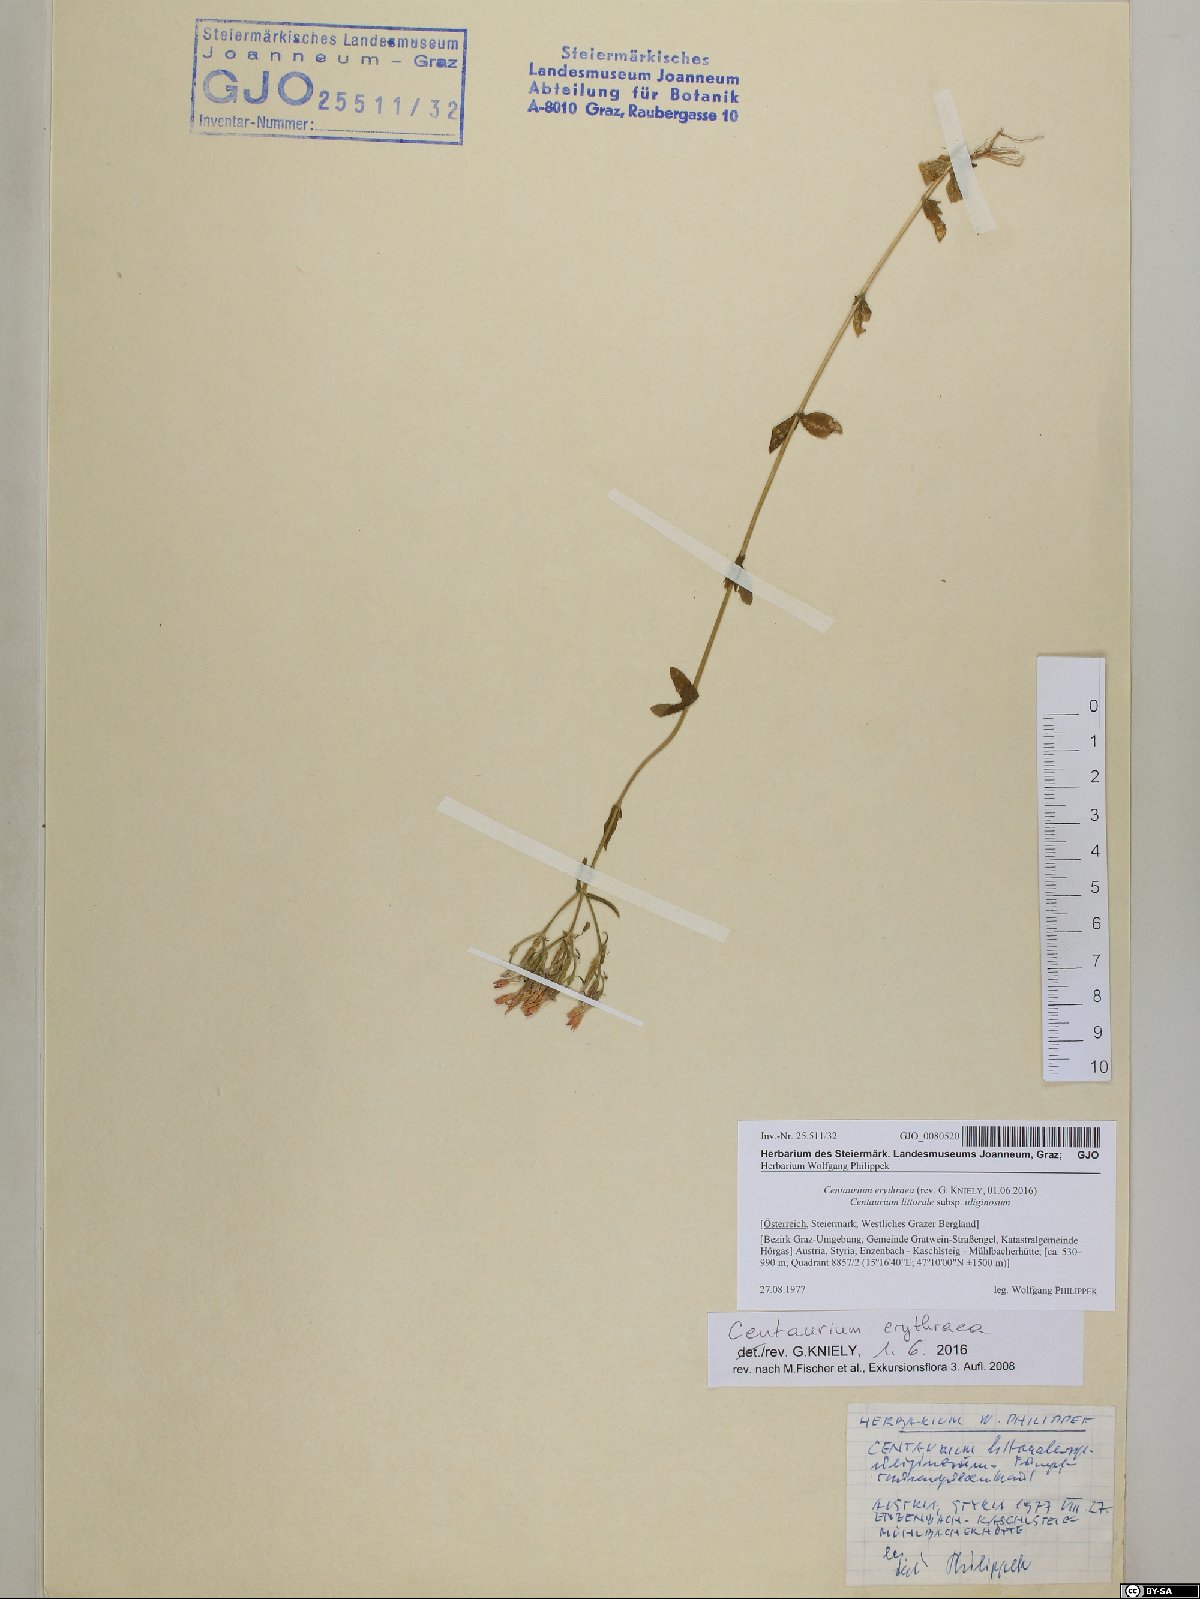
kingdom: Plantae
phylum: Tracheophyta
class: Magnoliopsida
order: Gentianales
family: Gentianaceae
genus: Centaurium
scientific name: Centaurium erythraea
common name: Common centaury
